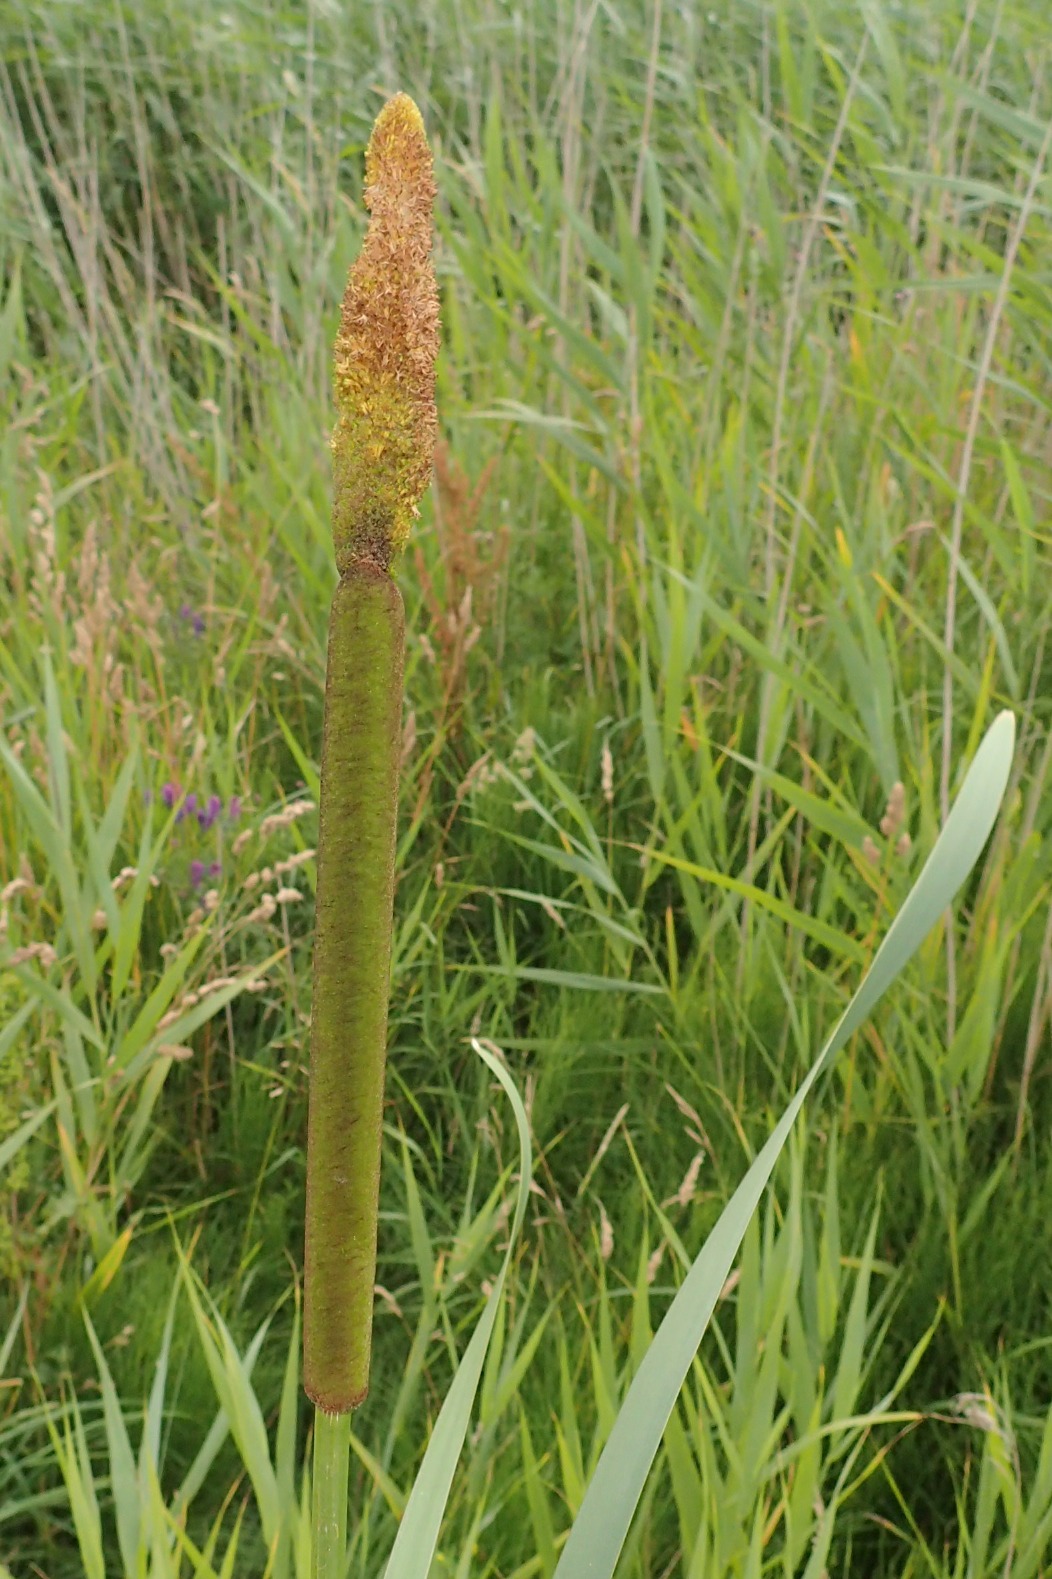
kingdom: Plantae
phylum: Tracheophyta
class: Liliopsida
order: Poales
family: Typhaceae
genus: Typha
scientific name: Typha latifolia
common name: Bredbladet dunhammer
